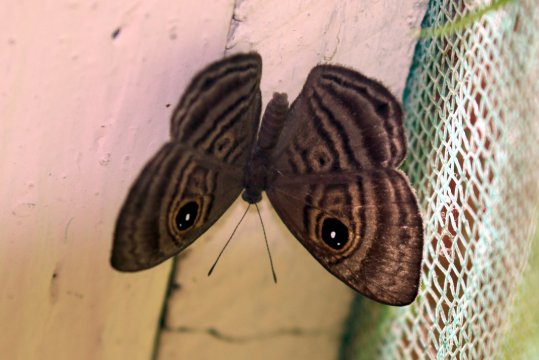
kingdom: Animalia
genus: Mesosemia
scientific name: Mesosemia ibycus
